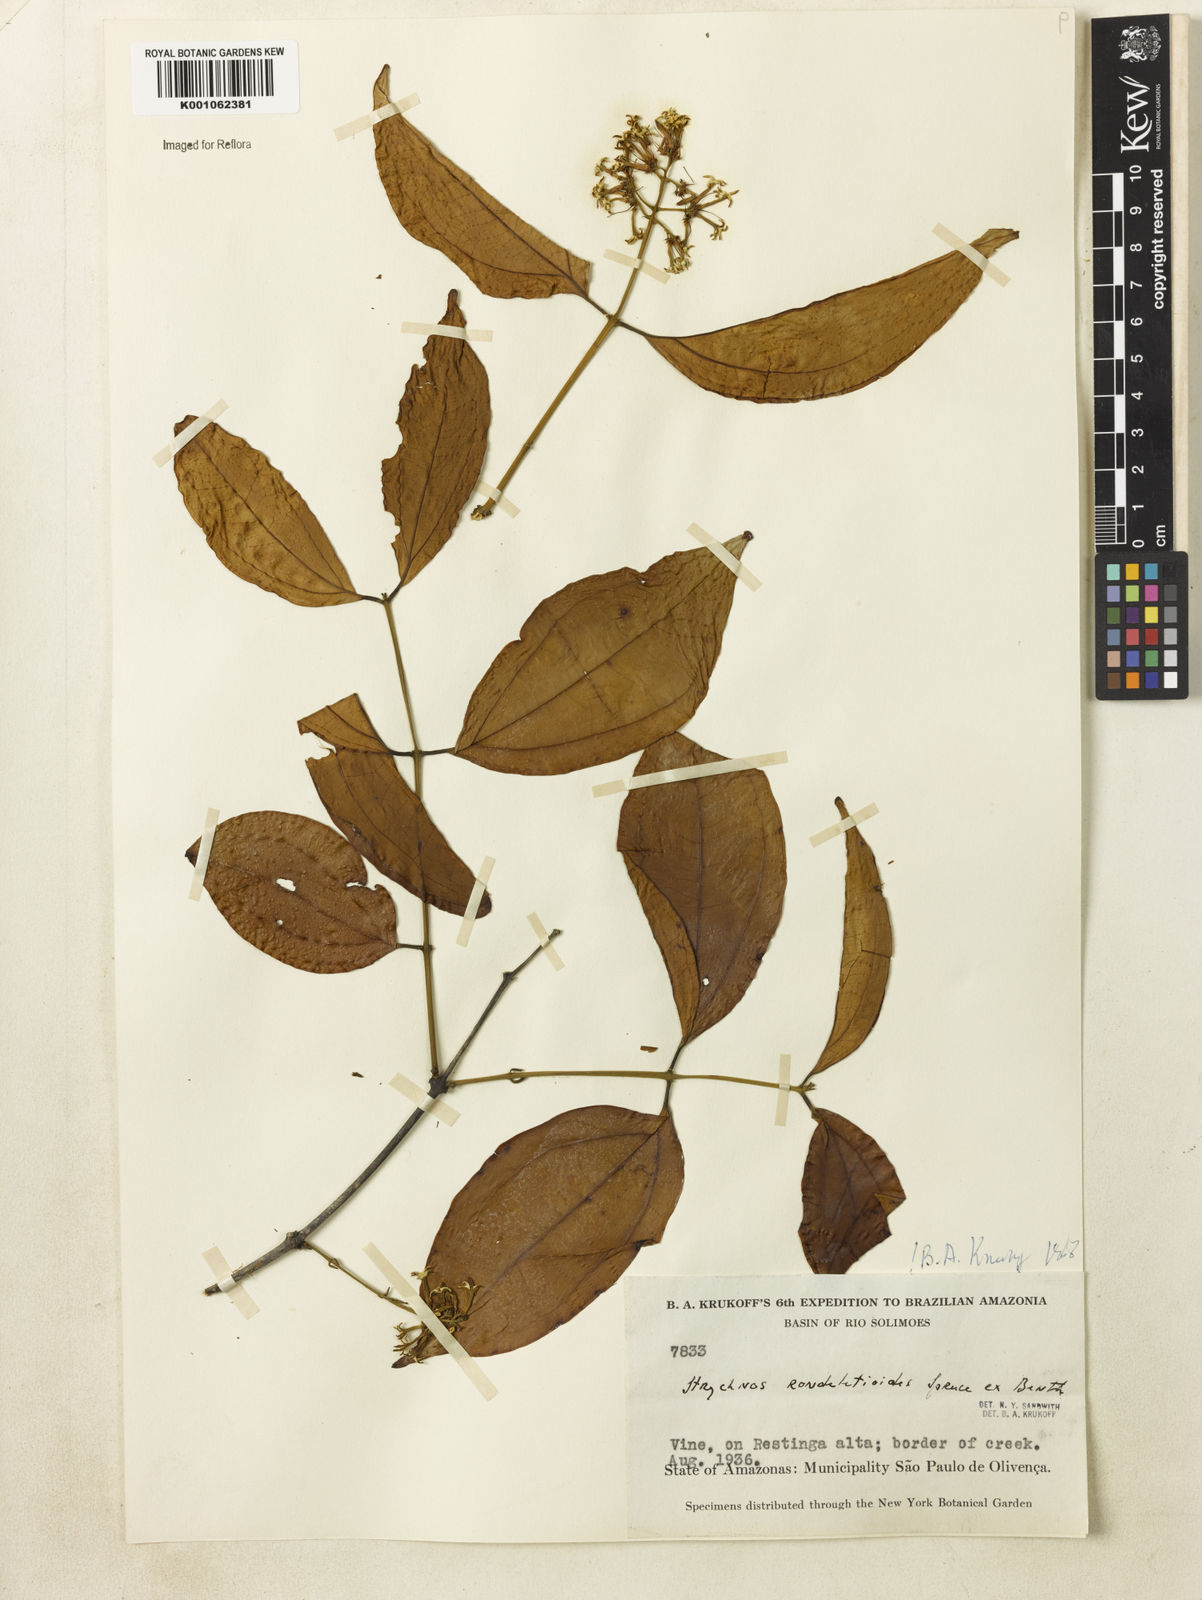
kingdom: Plantae
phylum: Tracheophyta
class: Magnoliopsida
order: Gentianales
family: Loganiaceae
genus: Strychnos
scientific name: Strychnos rondeletioides
